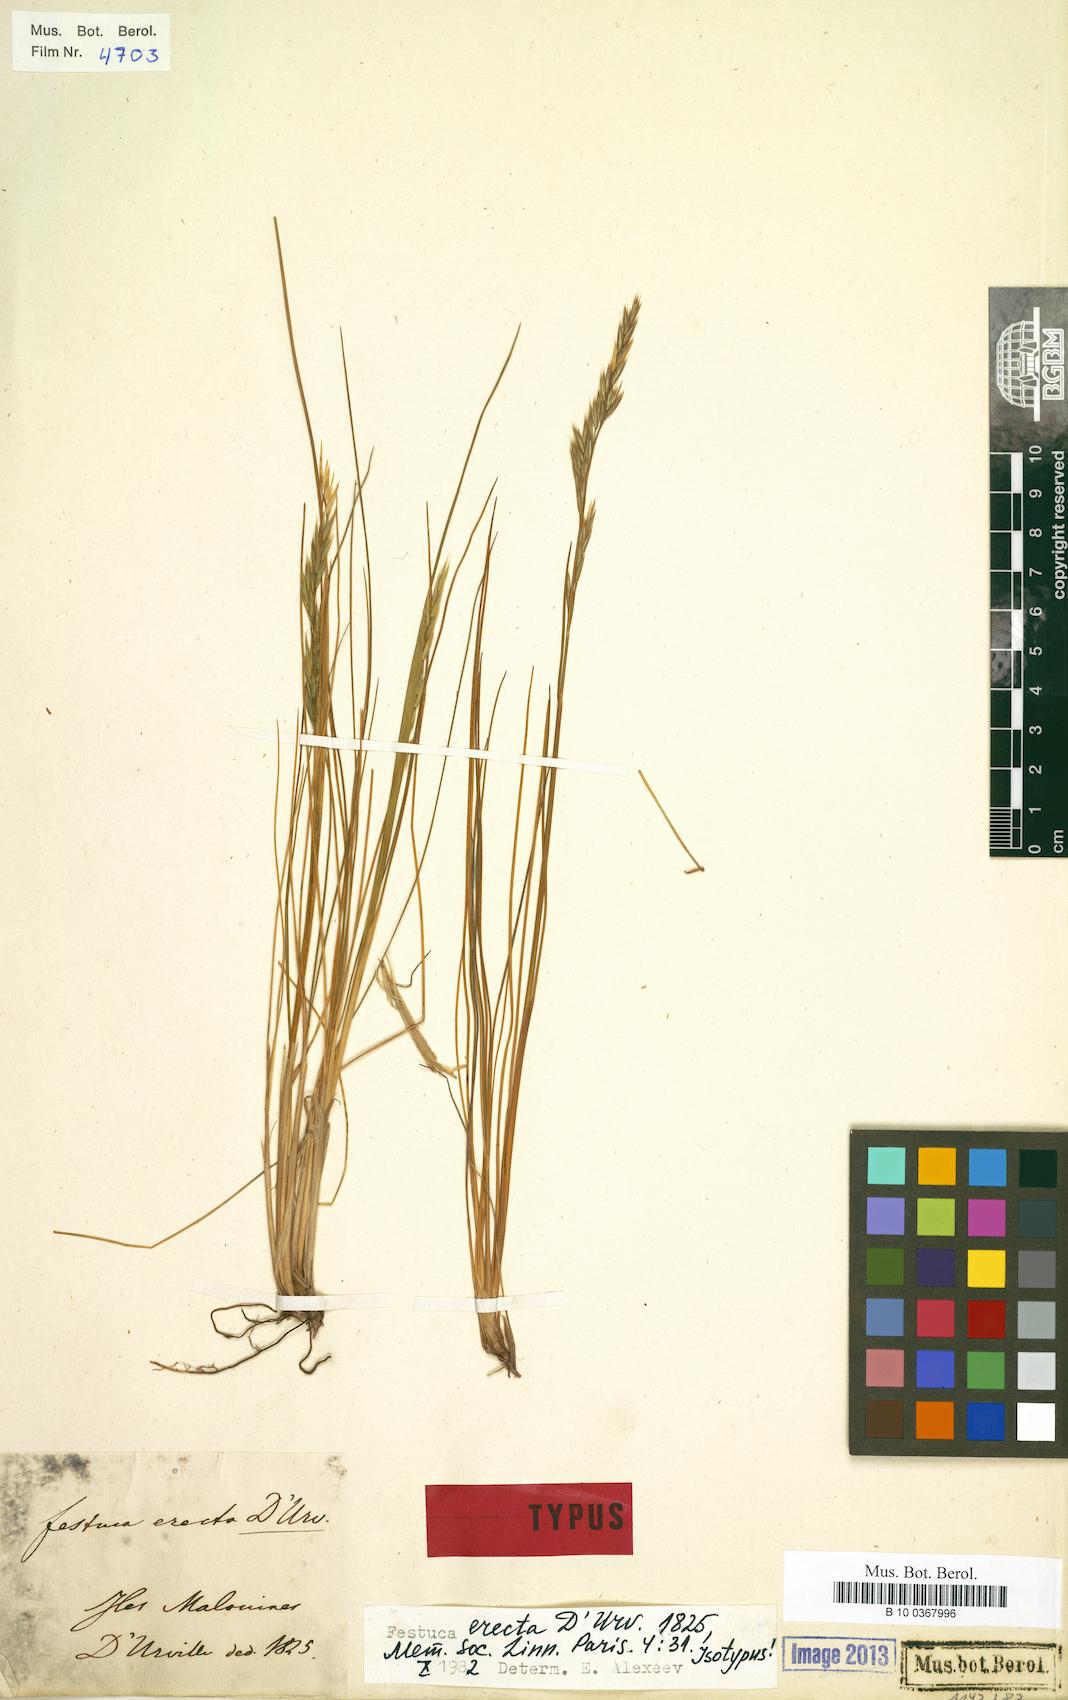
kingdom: Plantae
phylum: Tracheophyta
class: Liliopsida
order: Poales
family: Poaceae
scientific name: Poaceae
